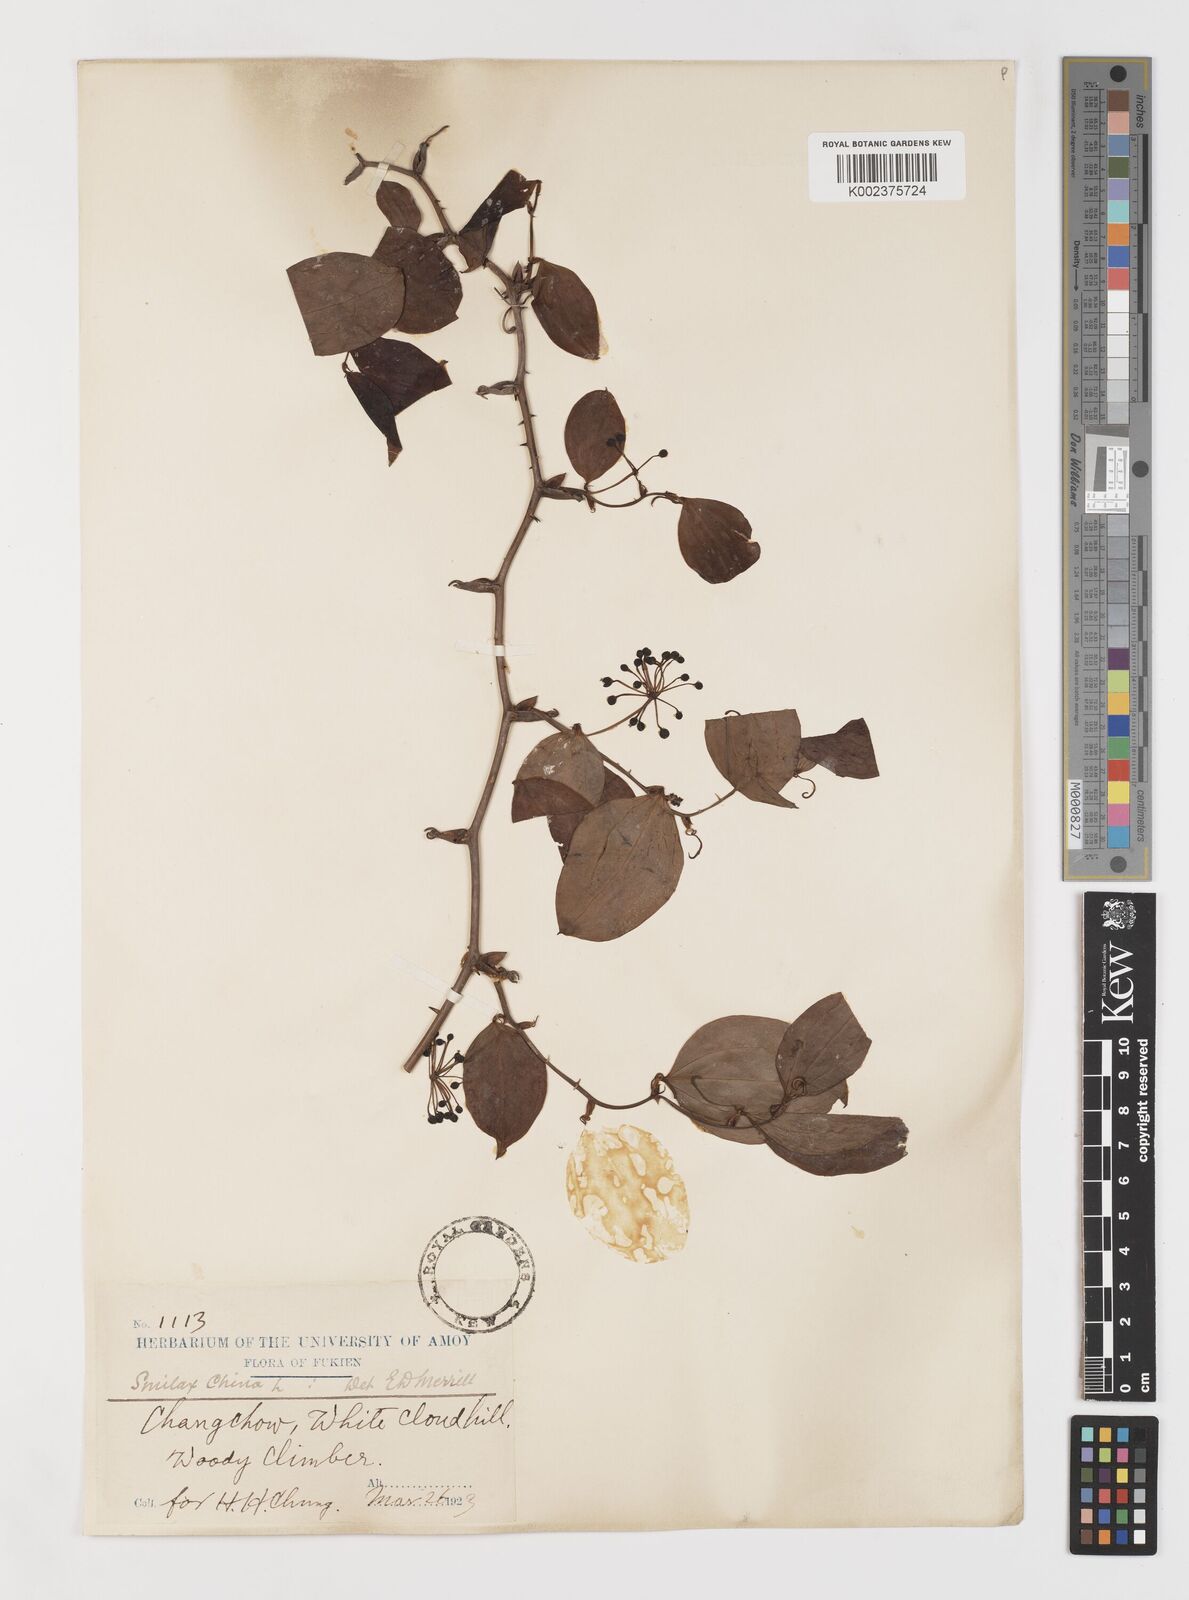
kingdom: Plantae
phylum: Tracheophyta
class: Liliopsida
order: Liliales
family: Smilacaceae
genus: Smilax
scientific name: Smilax
